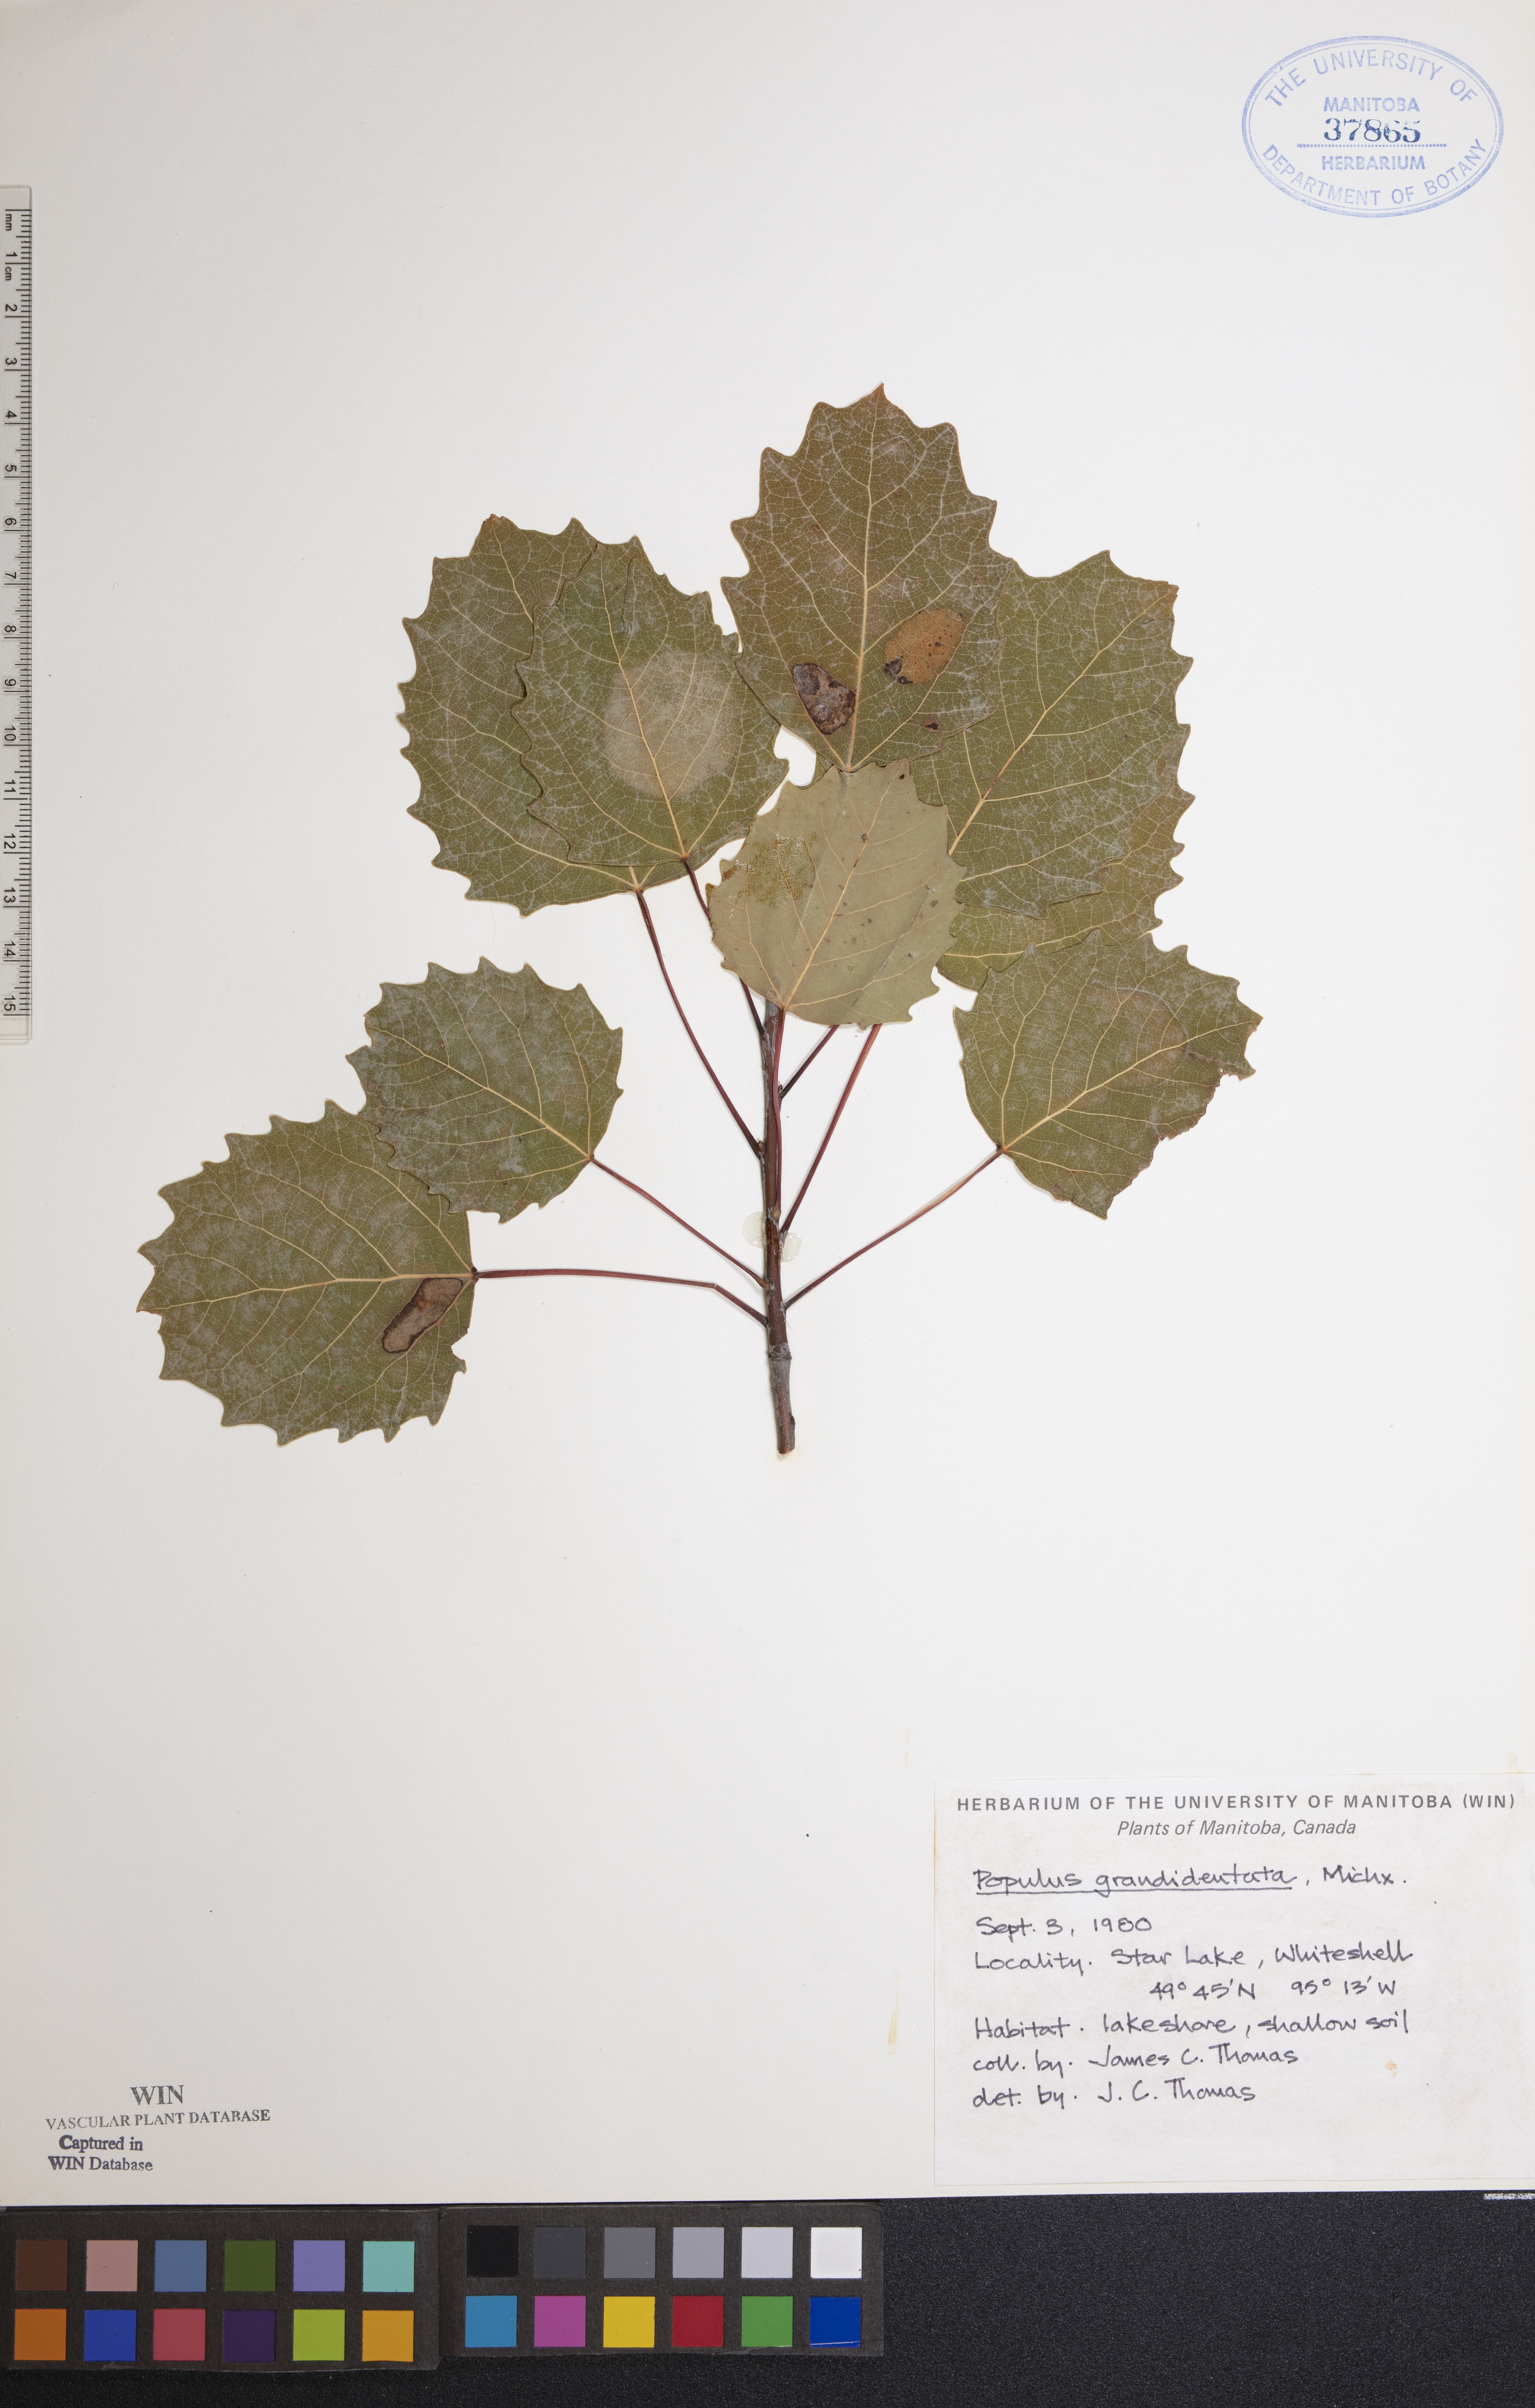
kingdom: Plantae
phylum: Tracheophyta
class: Magnoliopsida
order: Malpighiales
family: Salicaceae
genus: Populus
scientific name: Populus grandidentata
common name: Bigtooth aspen
